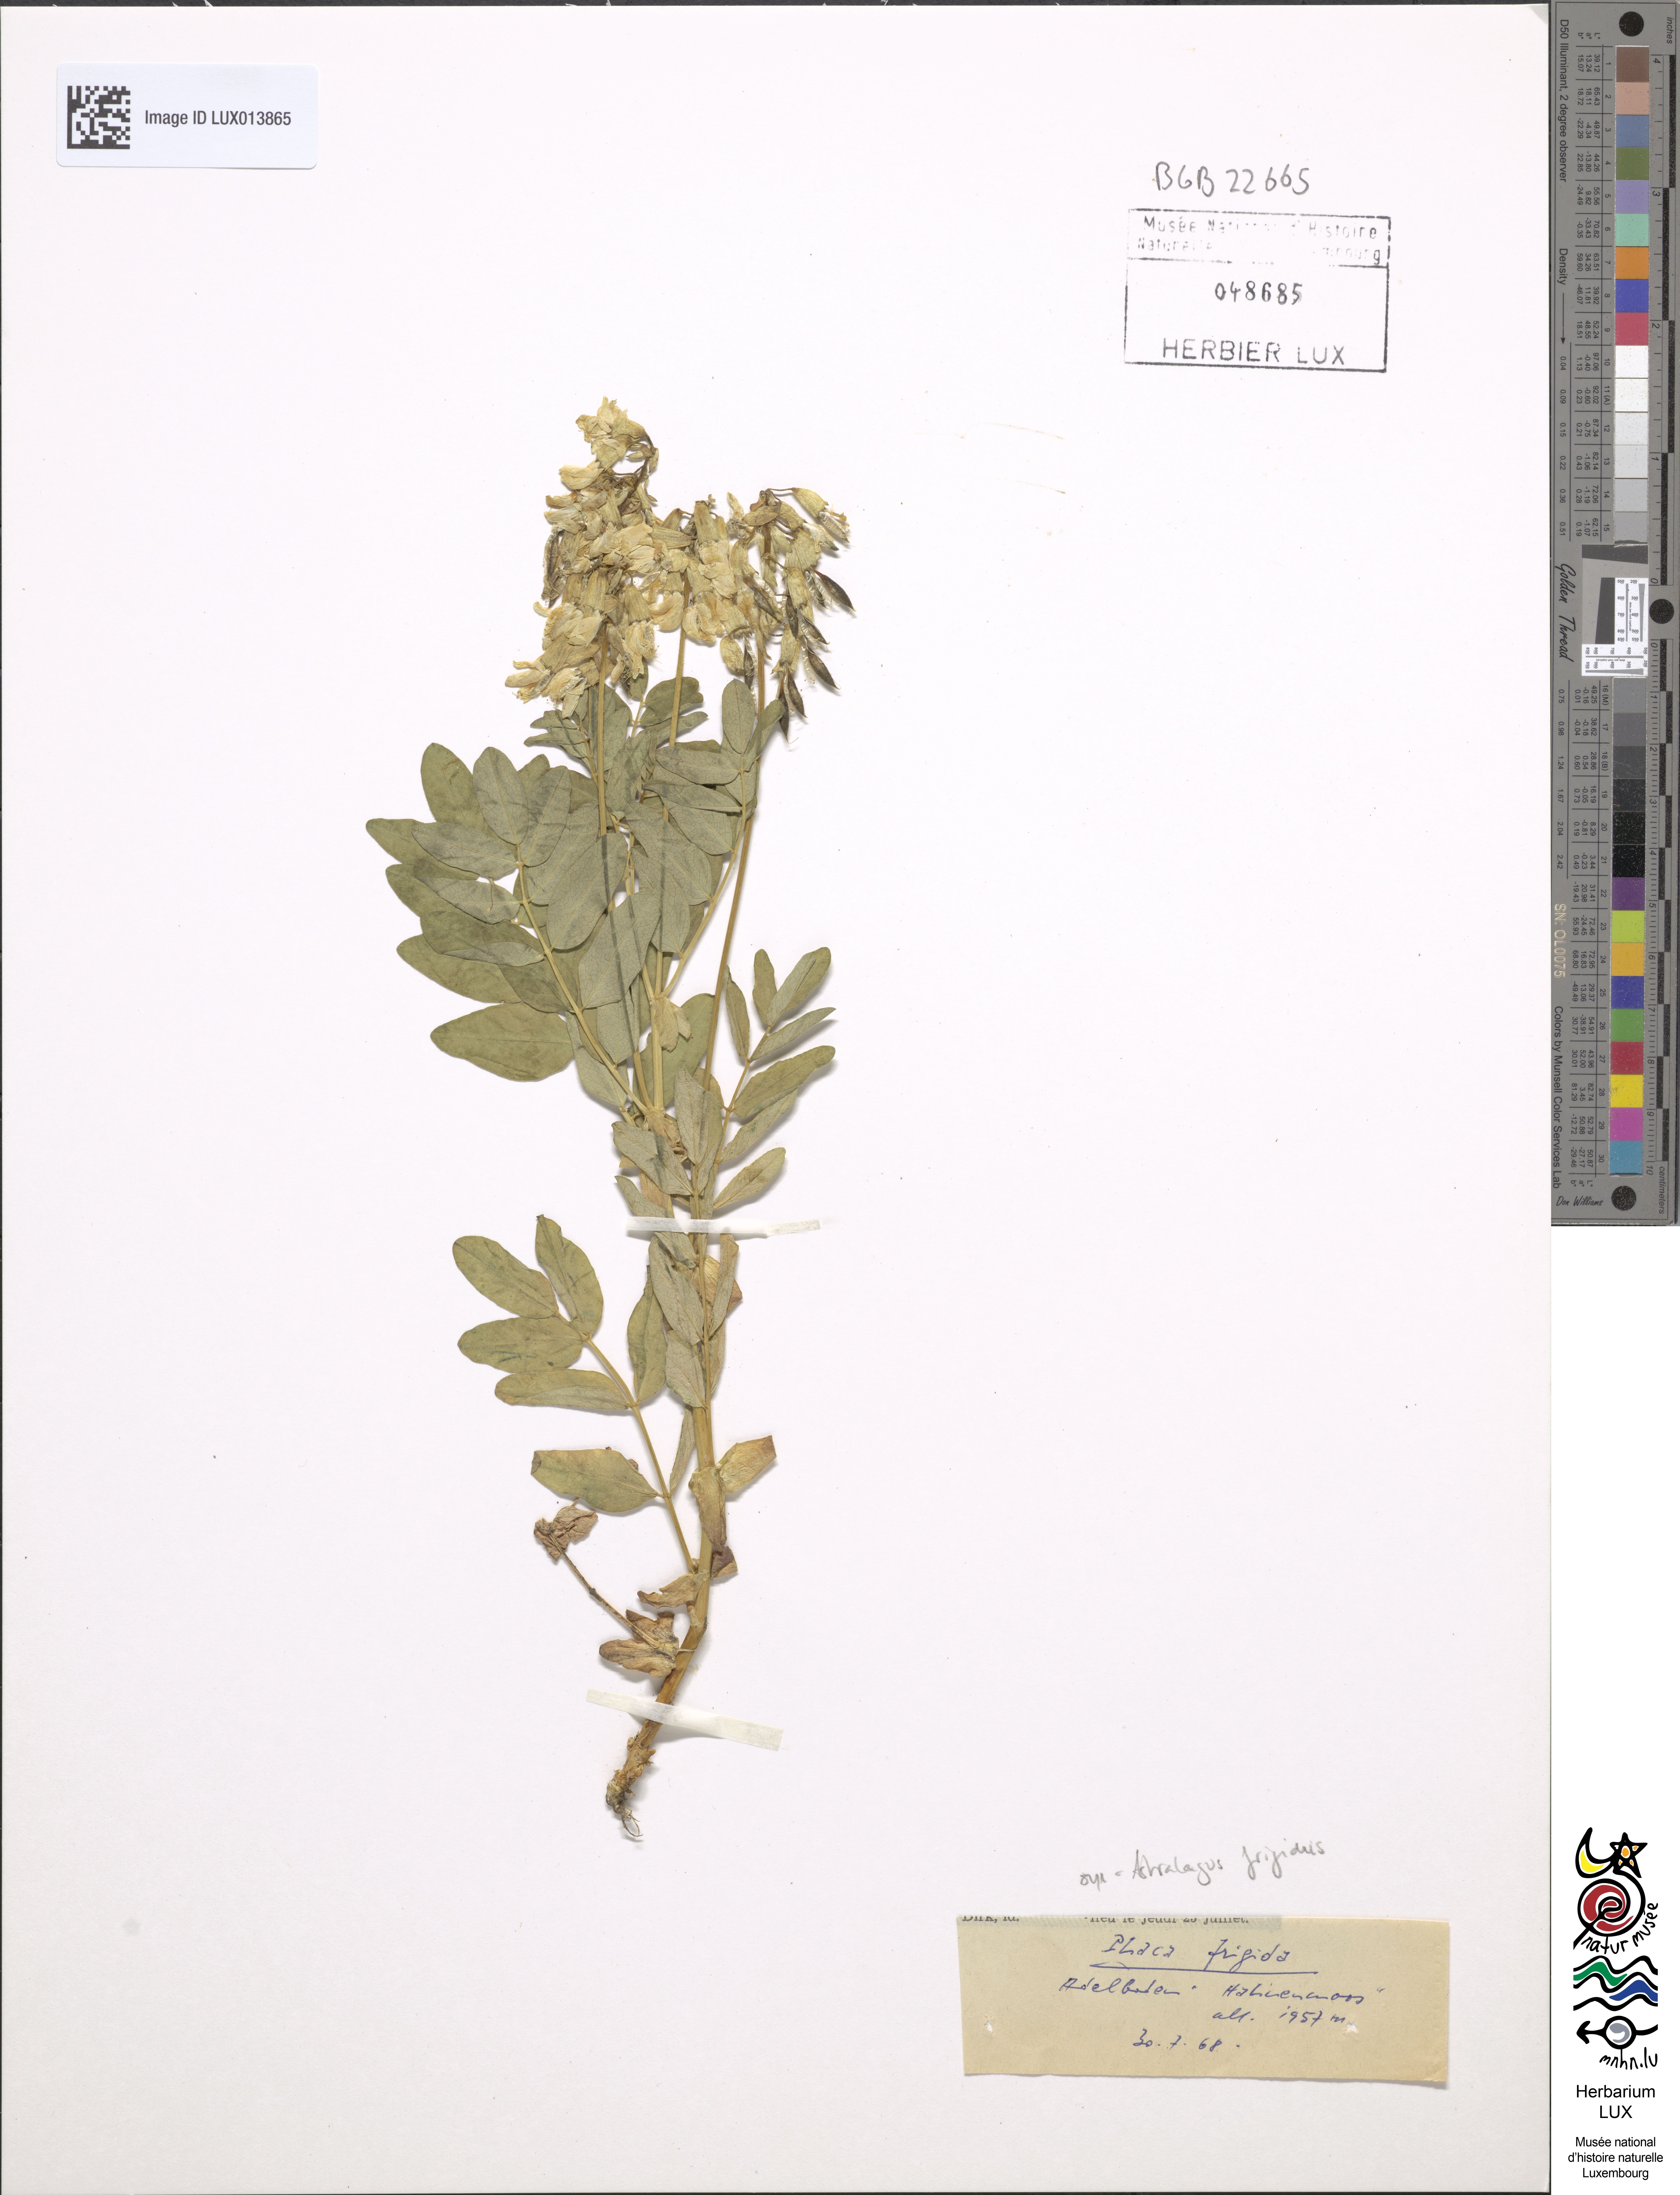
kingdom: Plantae
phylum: Tracheophyta
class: Magnoliopsida
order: Fabales
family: Fabaceae
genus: Astragalus
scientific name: Astragalus frigidus
